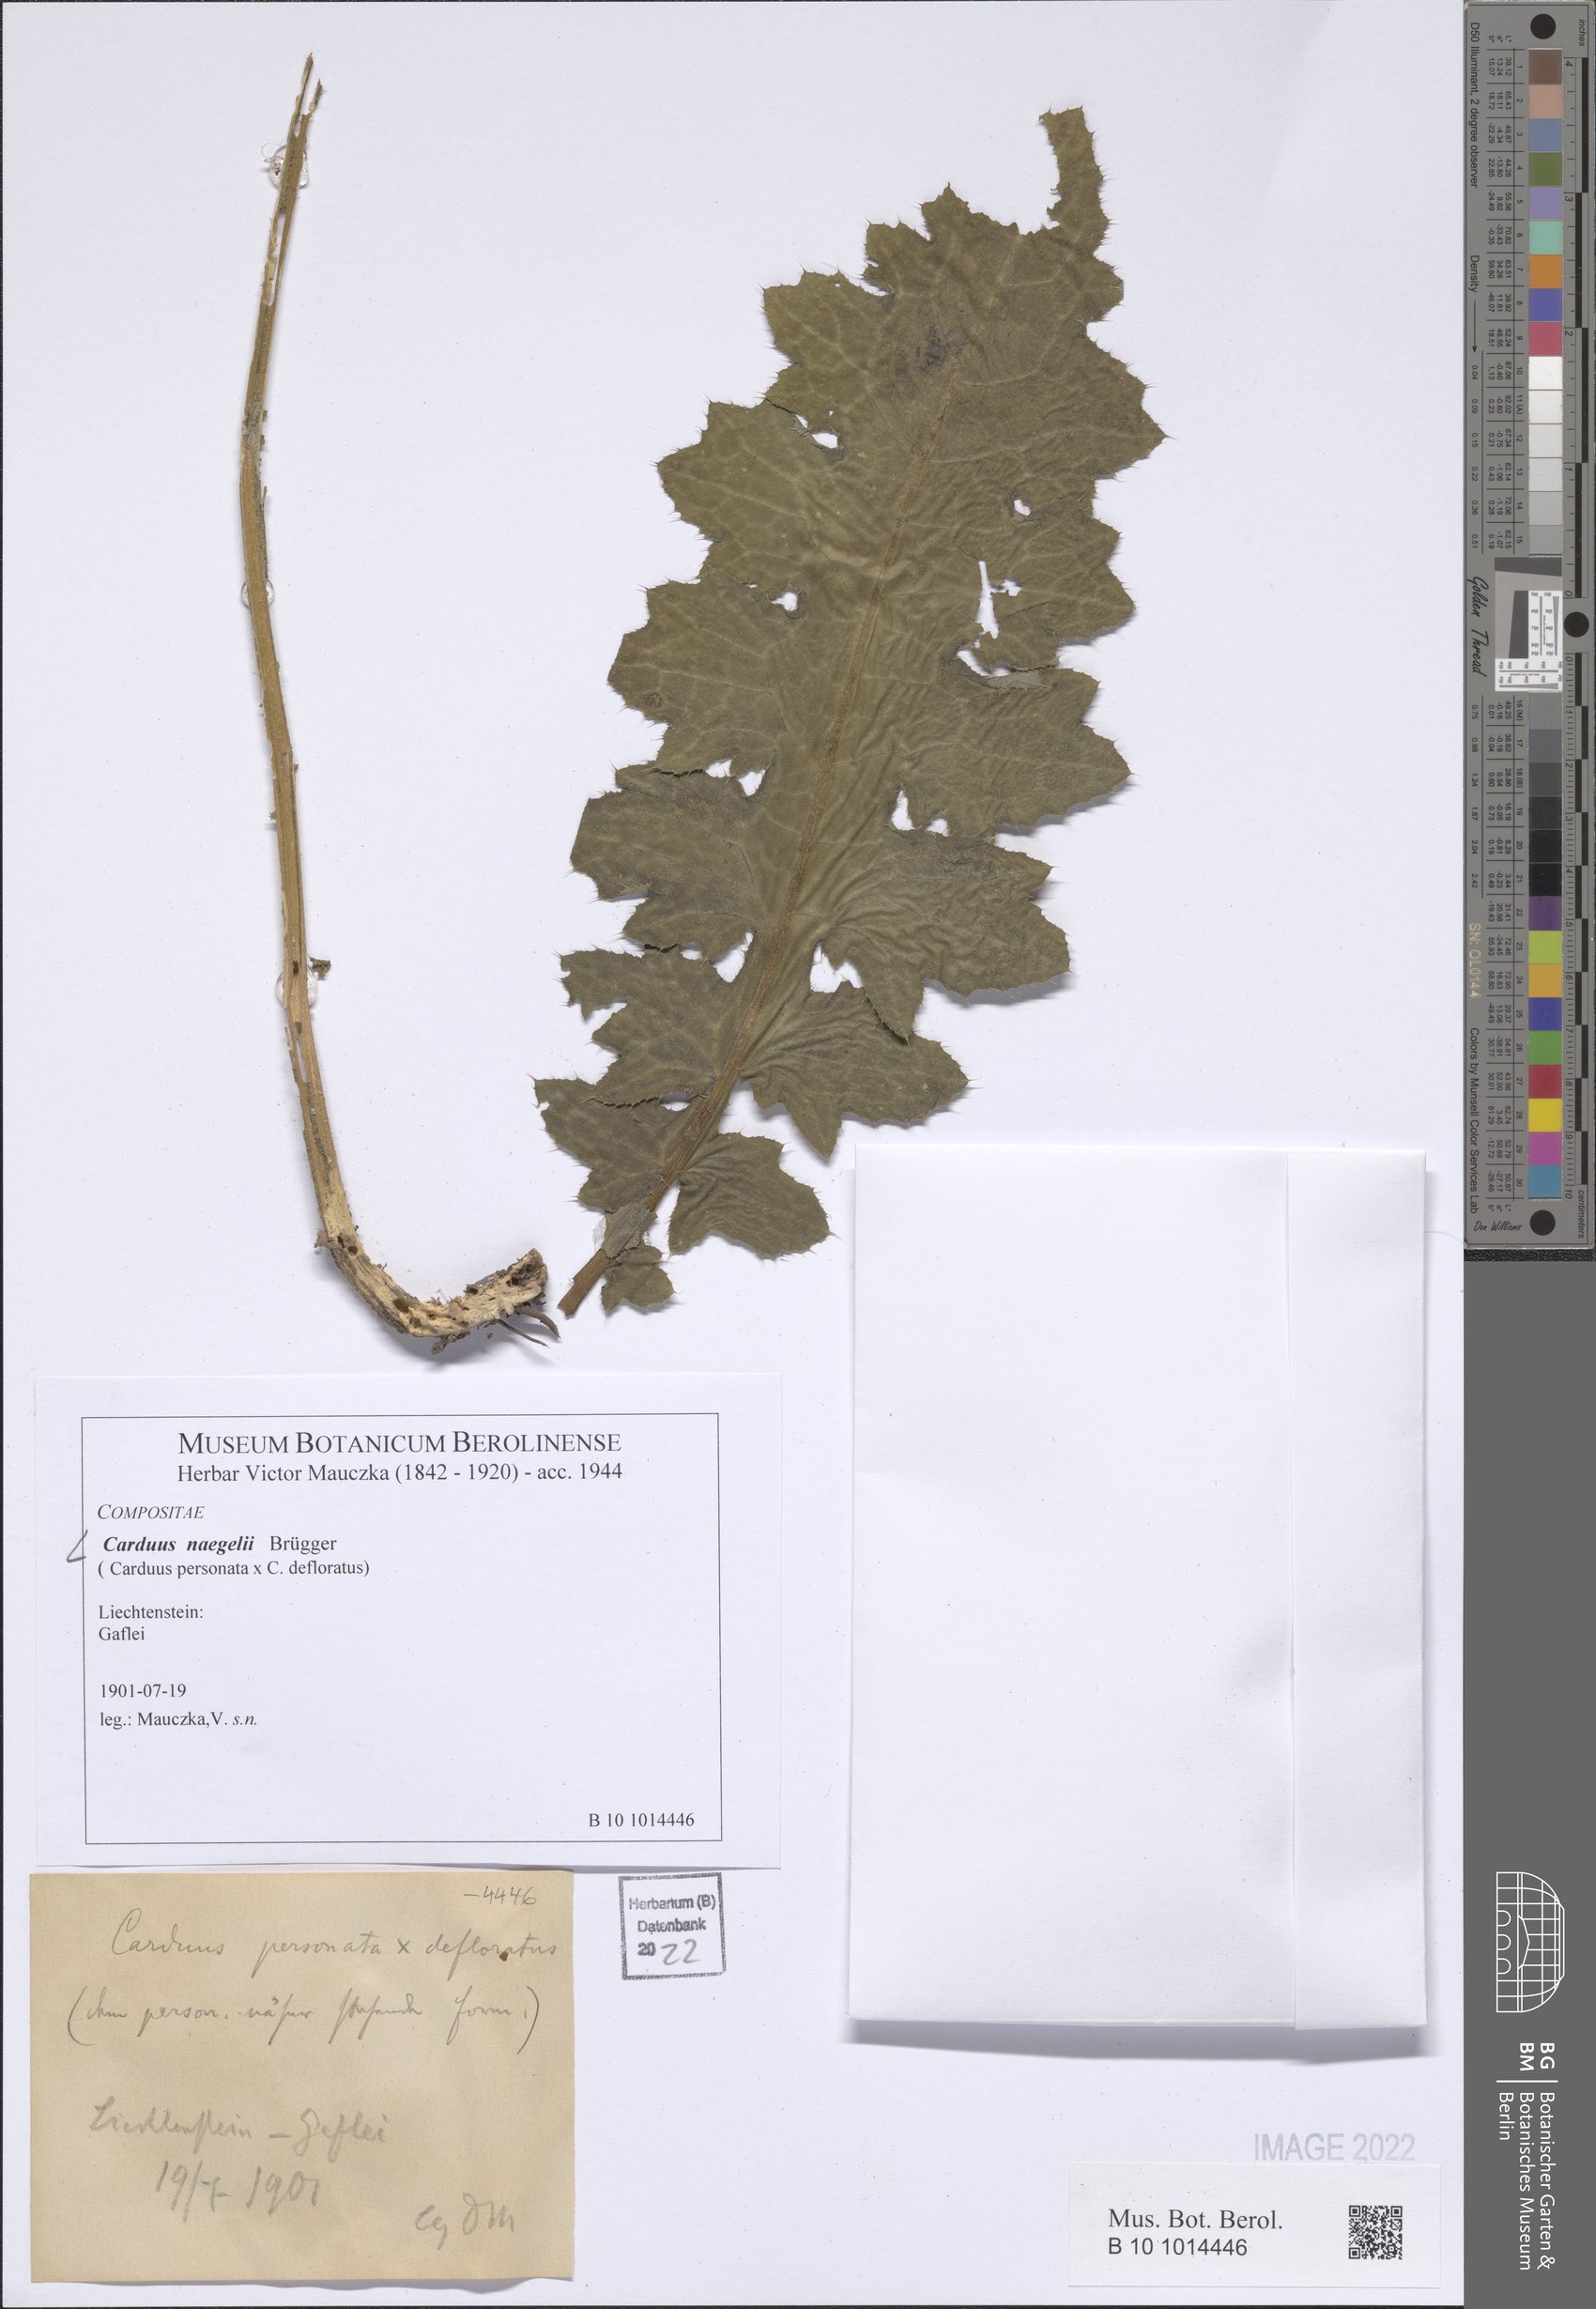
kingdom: Plantae
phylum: Tracheophyta
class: Magnoliopsida
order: Asterales
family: Asteraceae
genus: Carduus
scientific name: Carduus naegelii
